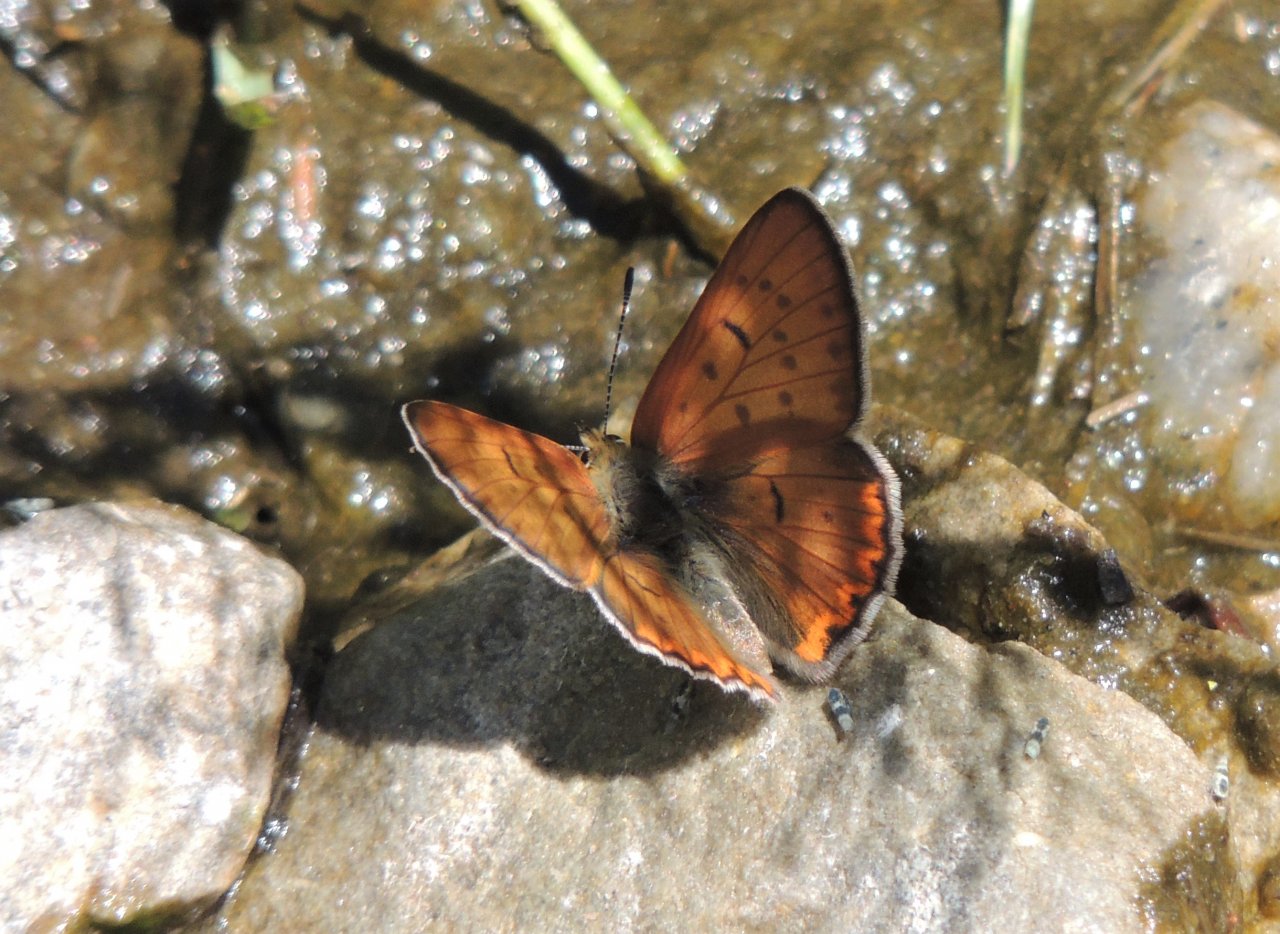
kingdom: Animalia
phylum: Arthropoda
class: Insecta
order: Lepidoptera
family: Lycaenidae
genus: Lycaena
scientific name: Lycaena nivalis
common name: Lilac-bordered Copper
